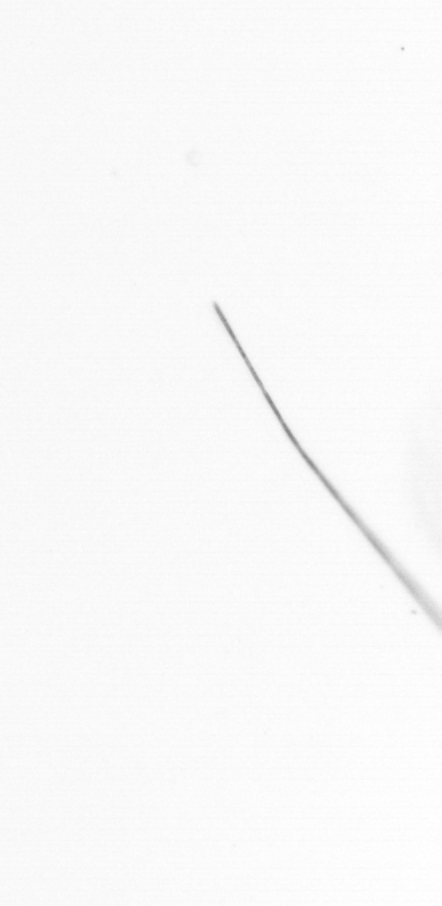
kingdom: Chromista
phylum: Ochrophyta
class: Bacillariophyceae
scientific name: Bacillariophyceae
